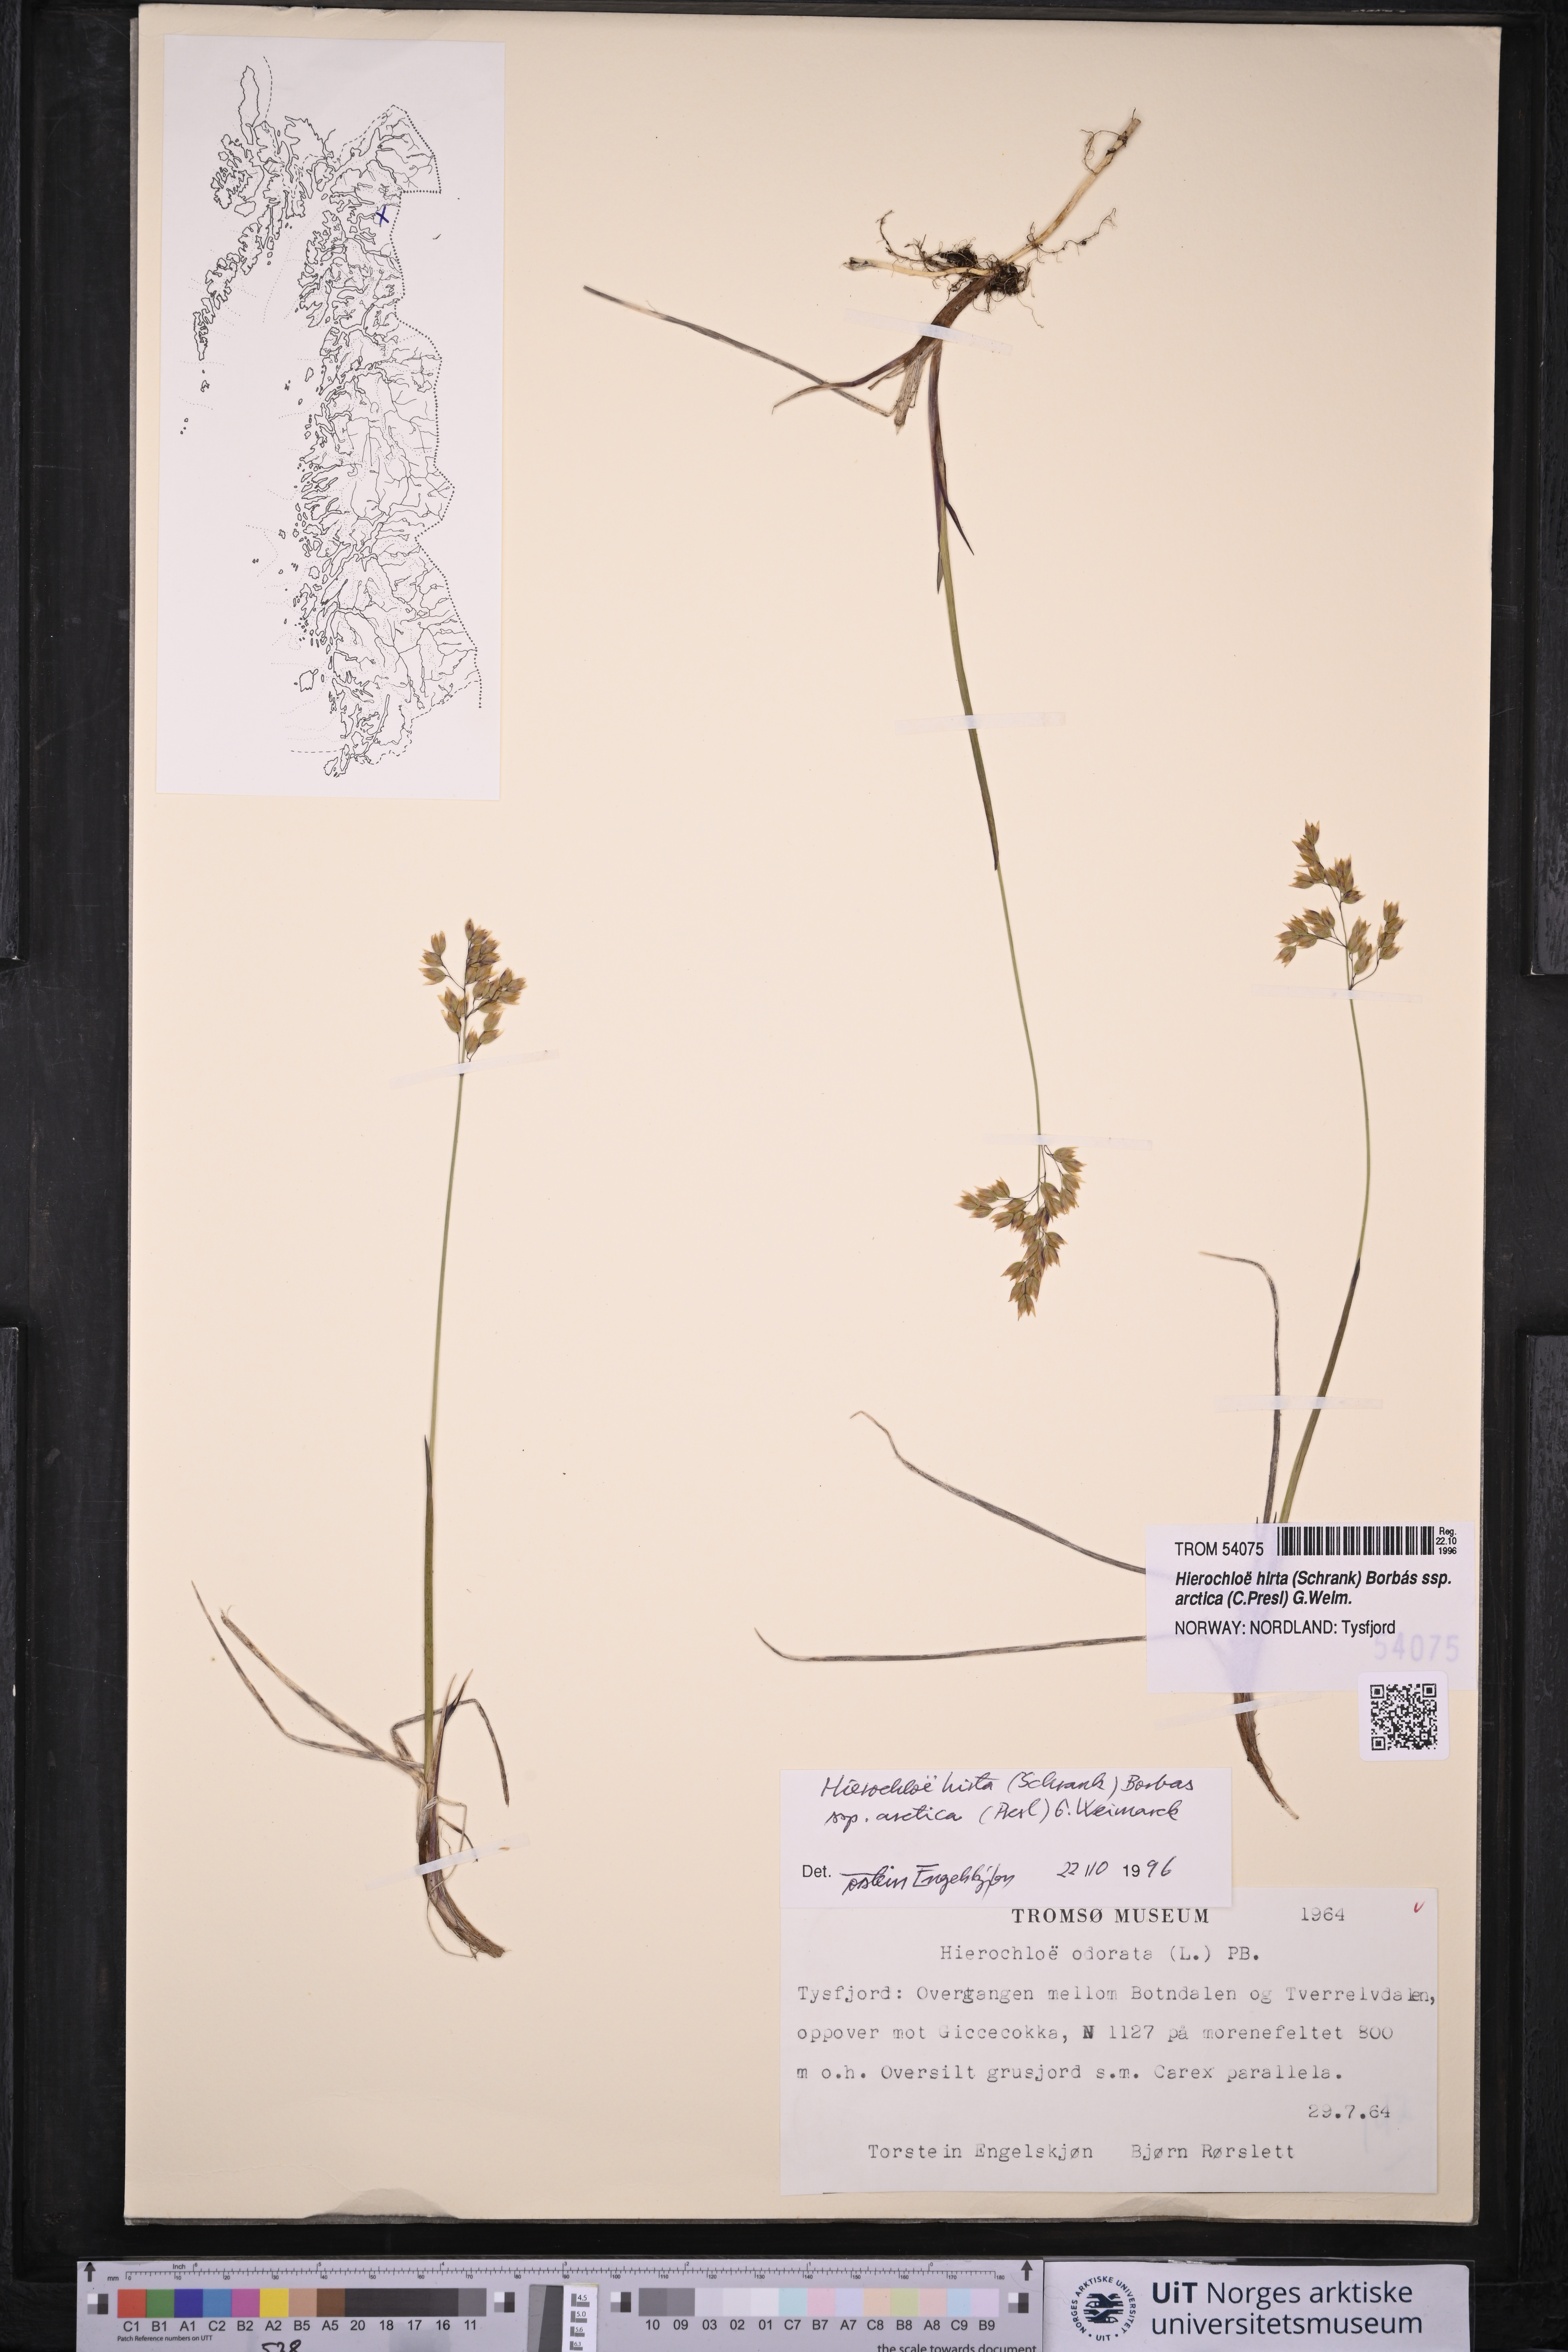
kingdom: Plantae
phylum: Tracheophyta
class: Liliopsida
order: Poales
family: Poaceae
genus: Anthoxanthum
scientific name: Anthoxanthum nitens
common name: Holy grass
